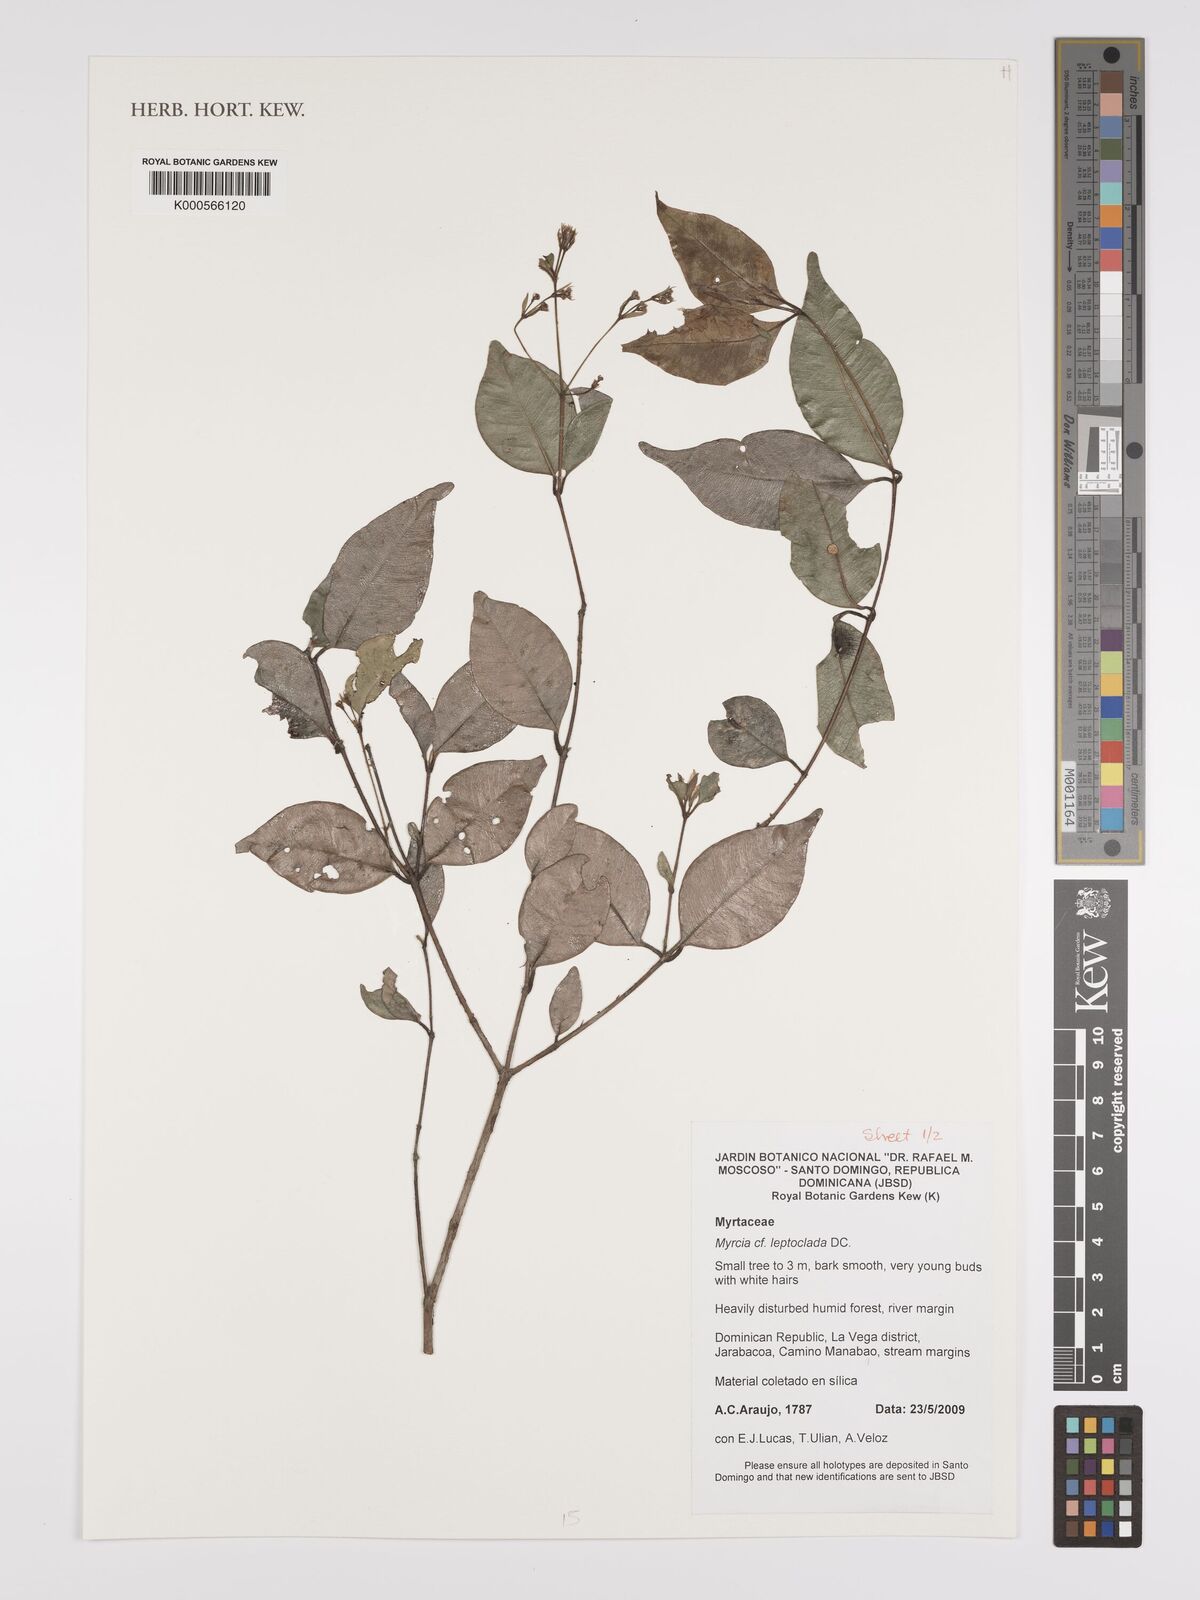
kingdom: Plantae
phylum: Tracheophyta
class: Magnoliopsida
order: Myrtales
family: Myrtaceae
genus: Myrcia
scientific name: Myrcia amazonica
